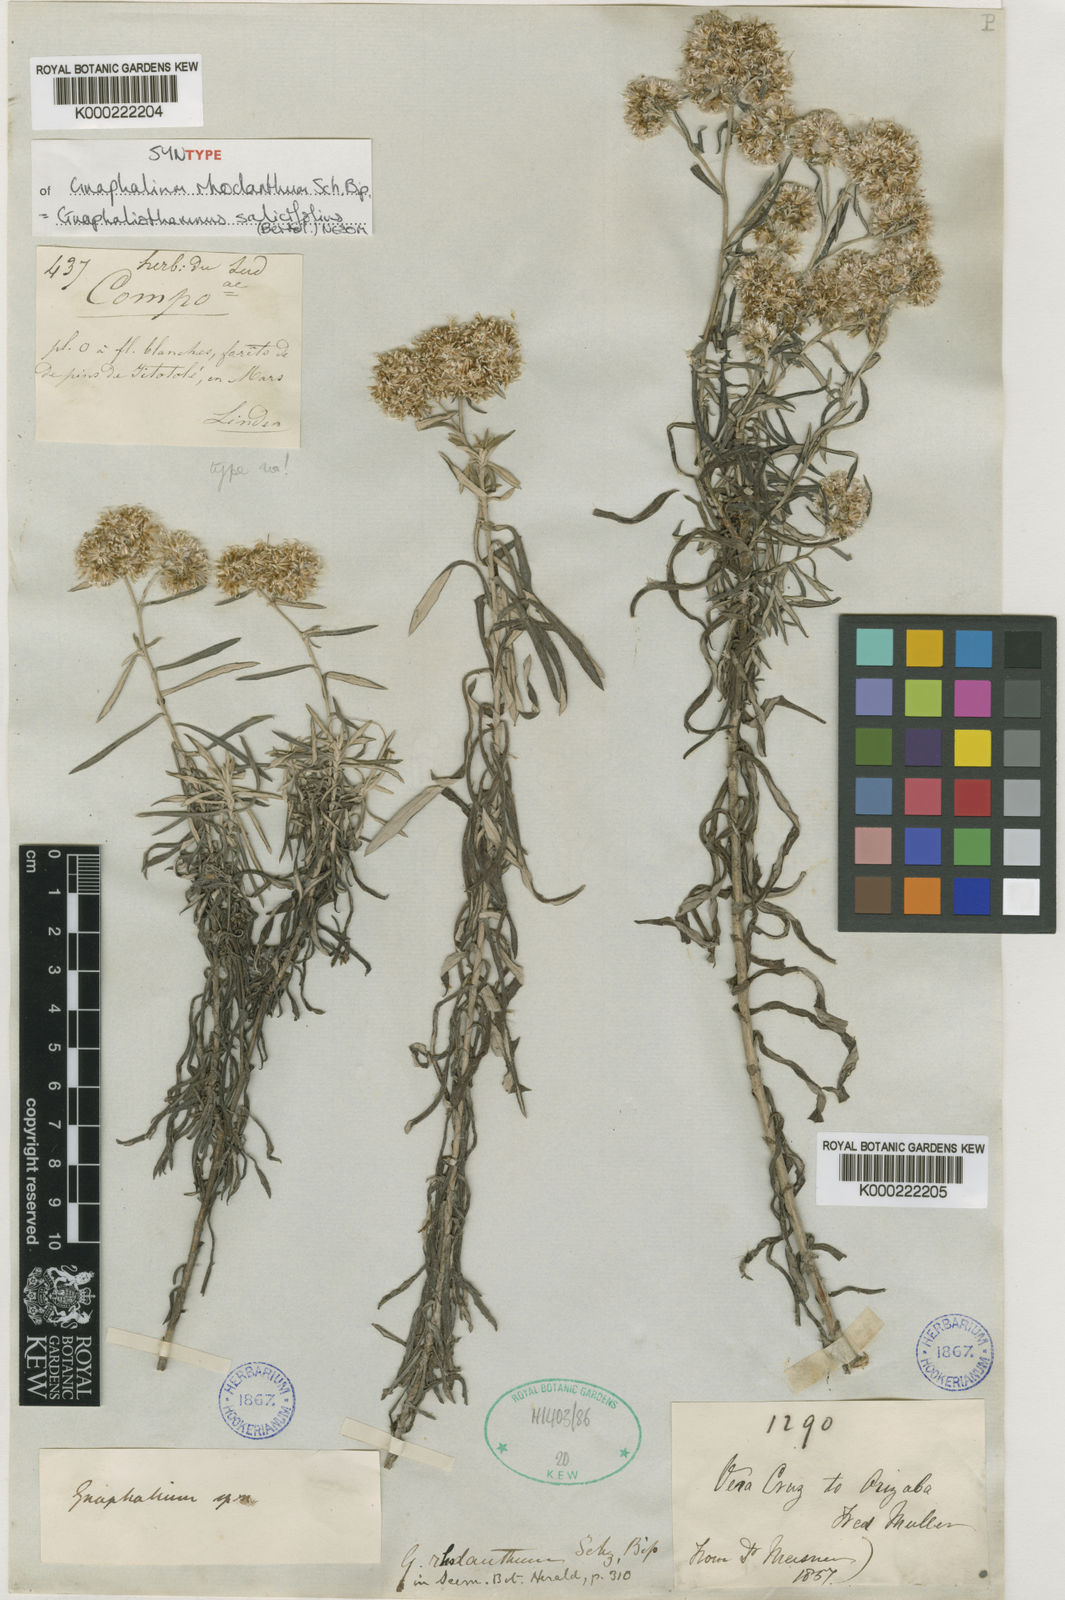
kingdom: Plantae
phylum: Tracheophyta
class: Magnoliopsida
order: Asterales
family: Asteraceae
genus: Gnaphaliothamnus
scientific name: Gnaphaliothamnus salicifolius
